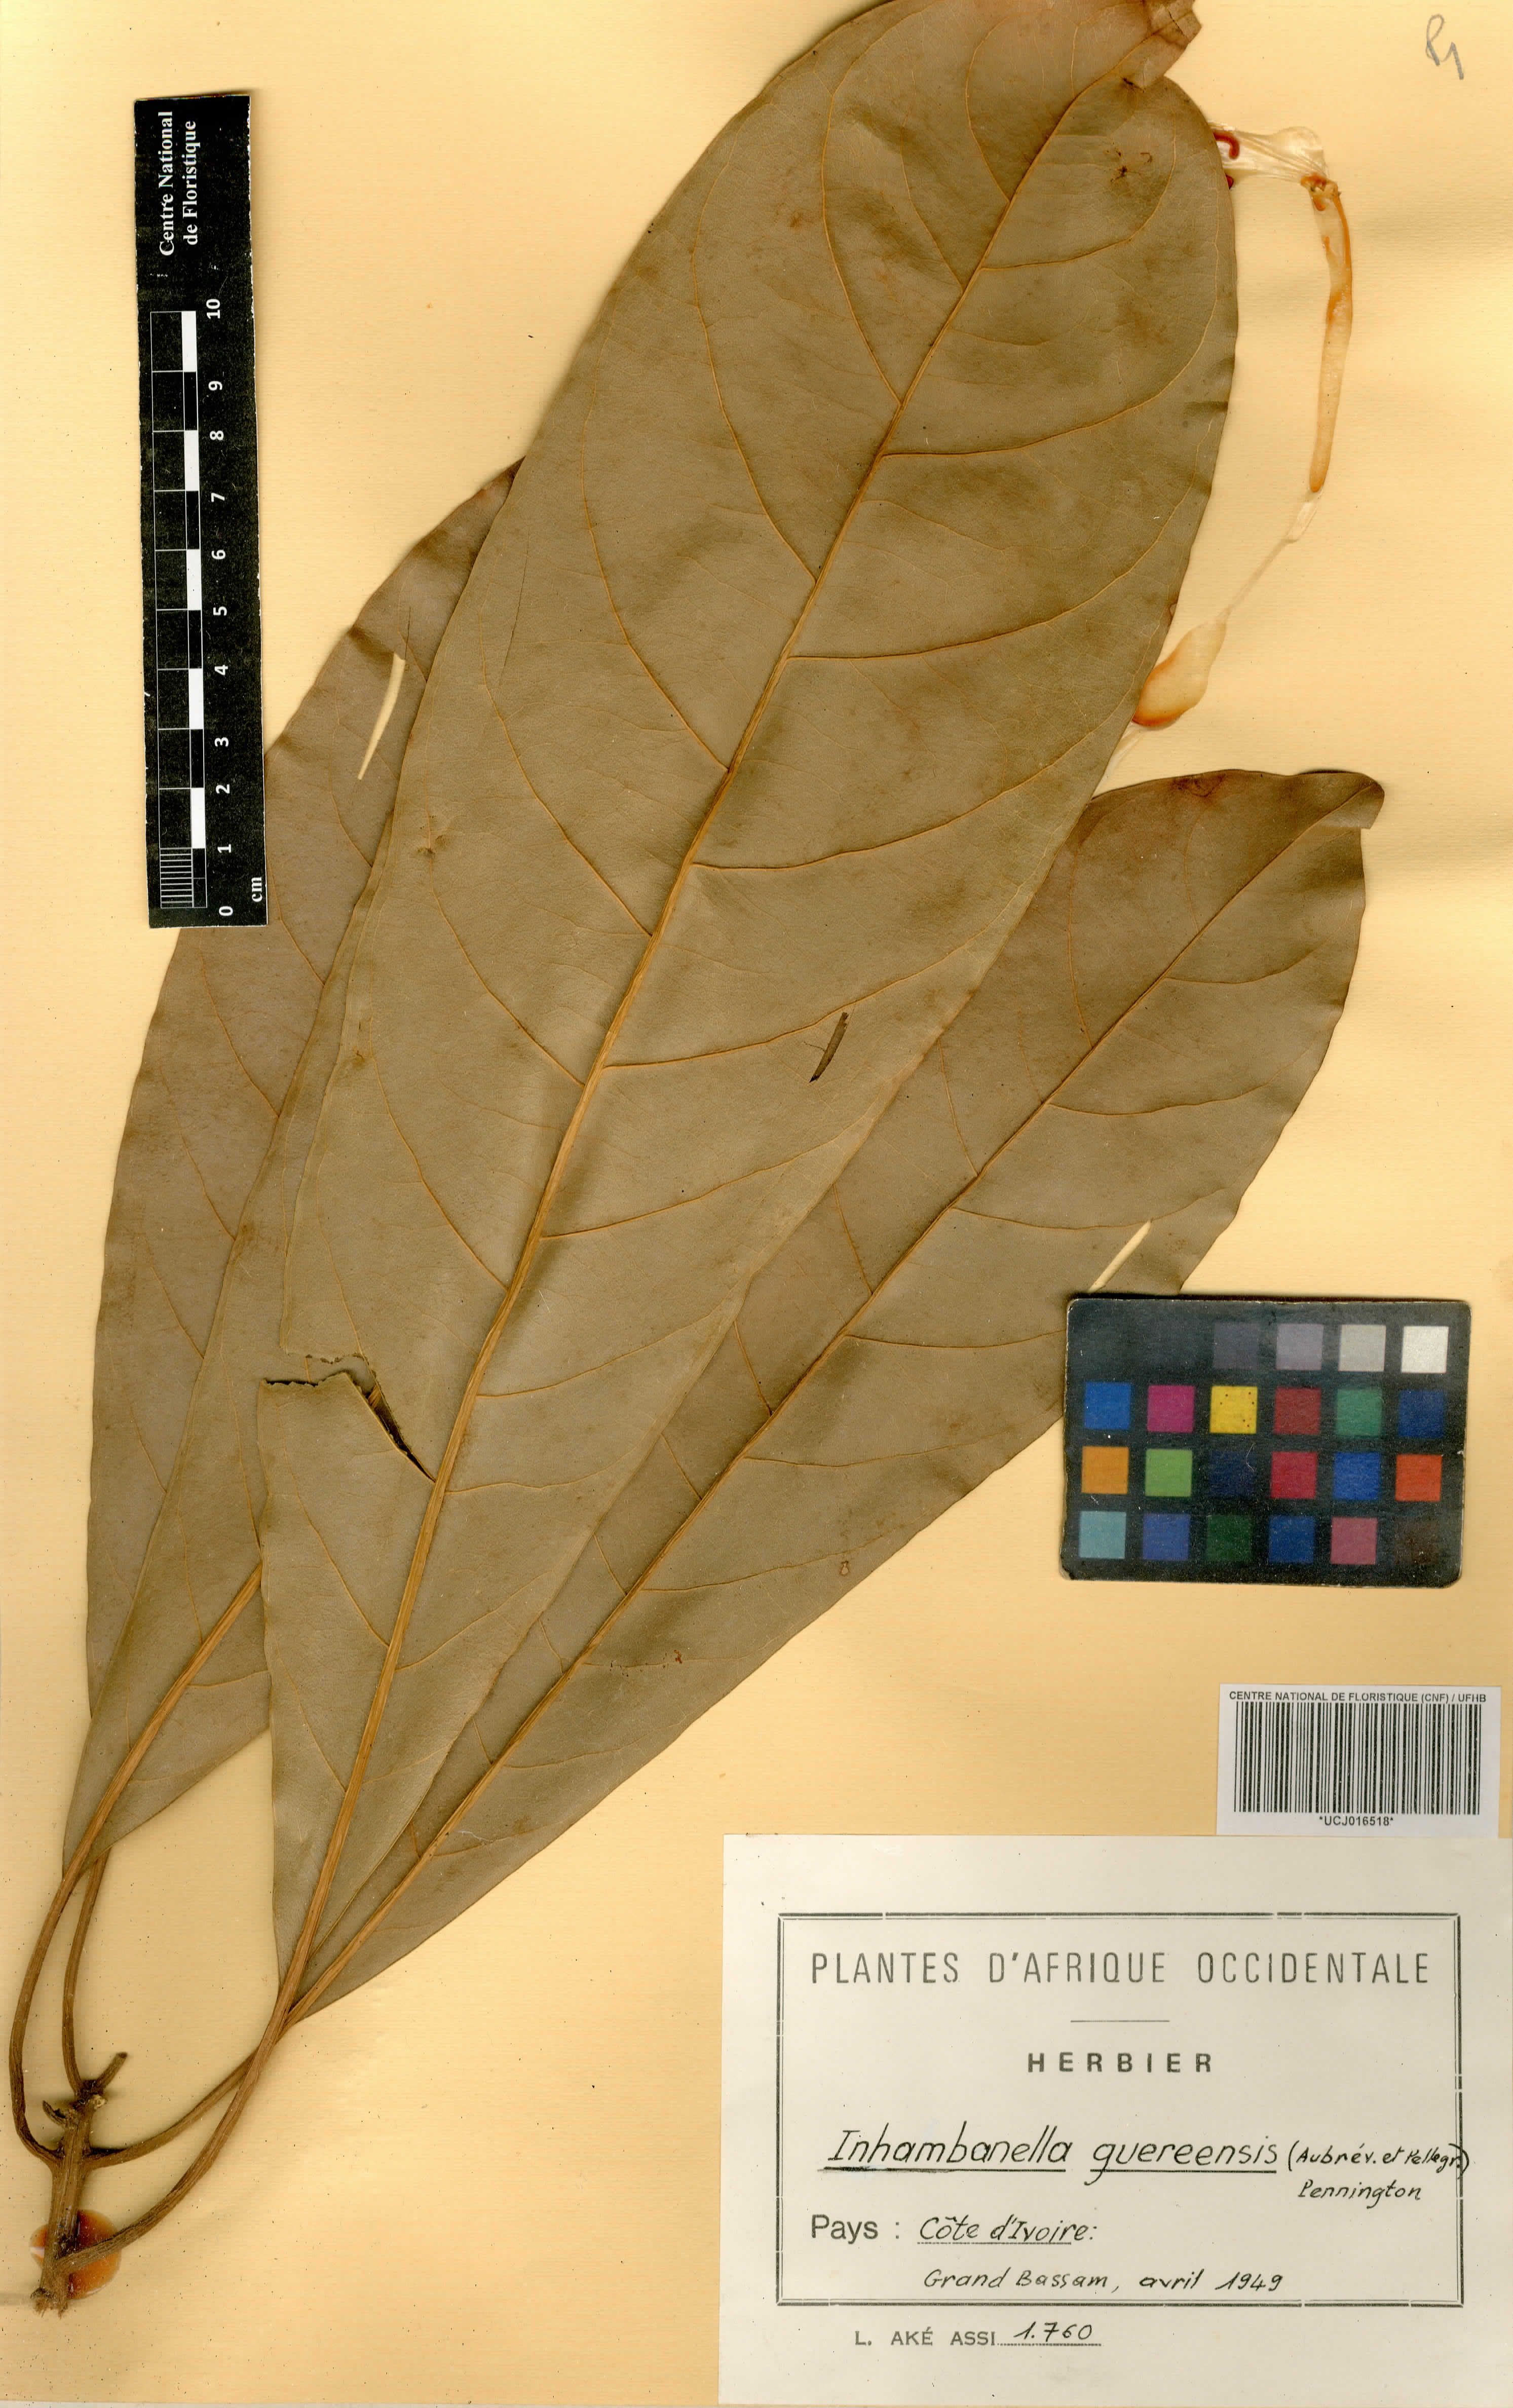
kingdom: Plantae
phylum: Tracheophyta
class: Magnoliopsida
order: Ericales
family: Sapotaceae
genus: Inhambanella
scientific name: Inhambanella guereensis
